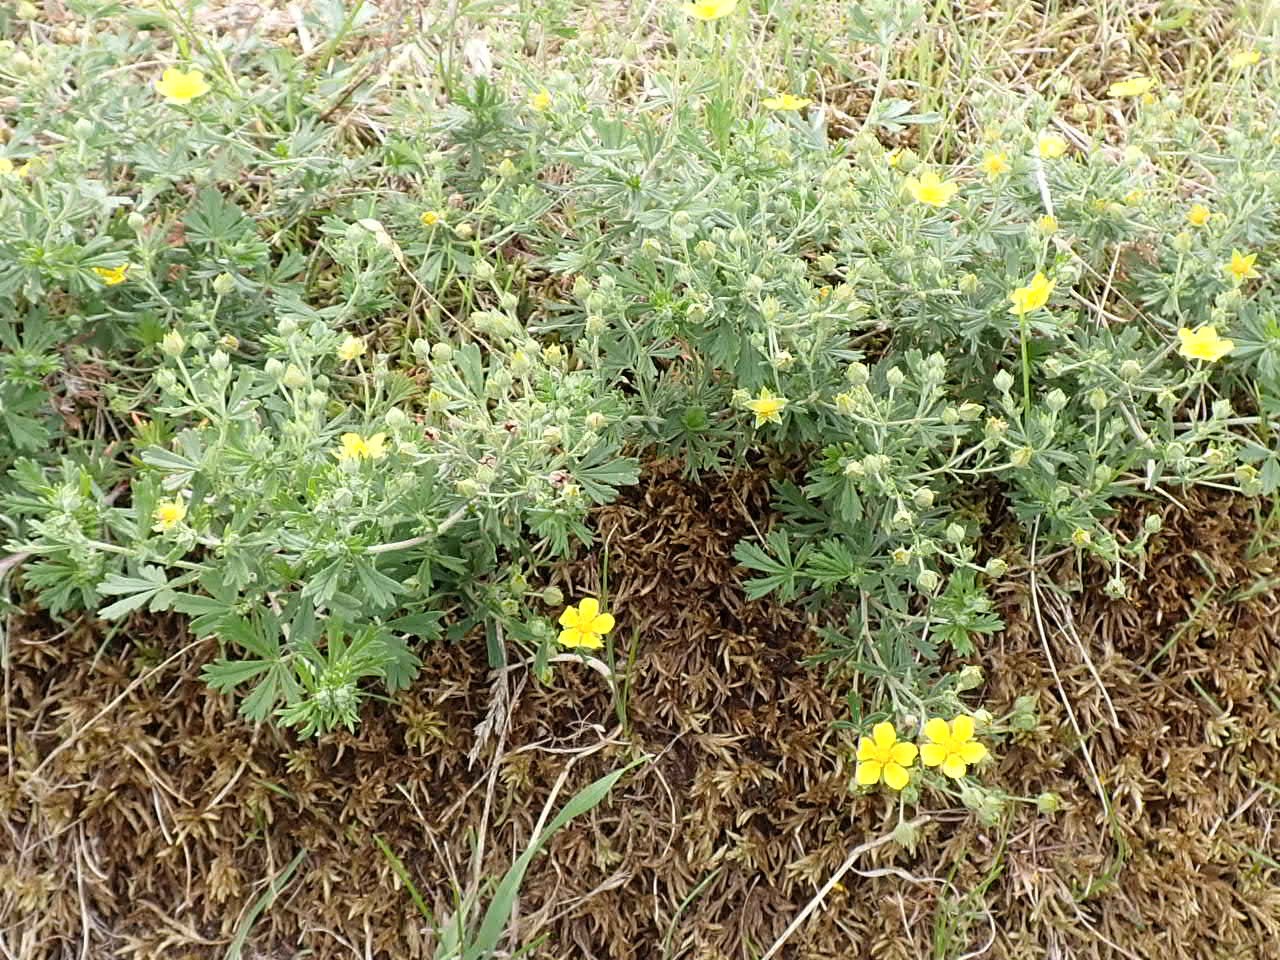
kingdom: Plantae
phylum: Tracheophyta
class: Magnoliopsida
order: Rosales
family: Rosaceae
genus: Potentilla
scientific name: Potentilla argentea
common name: Sølv-potentil
